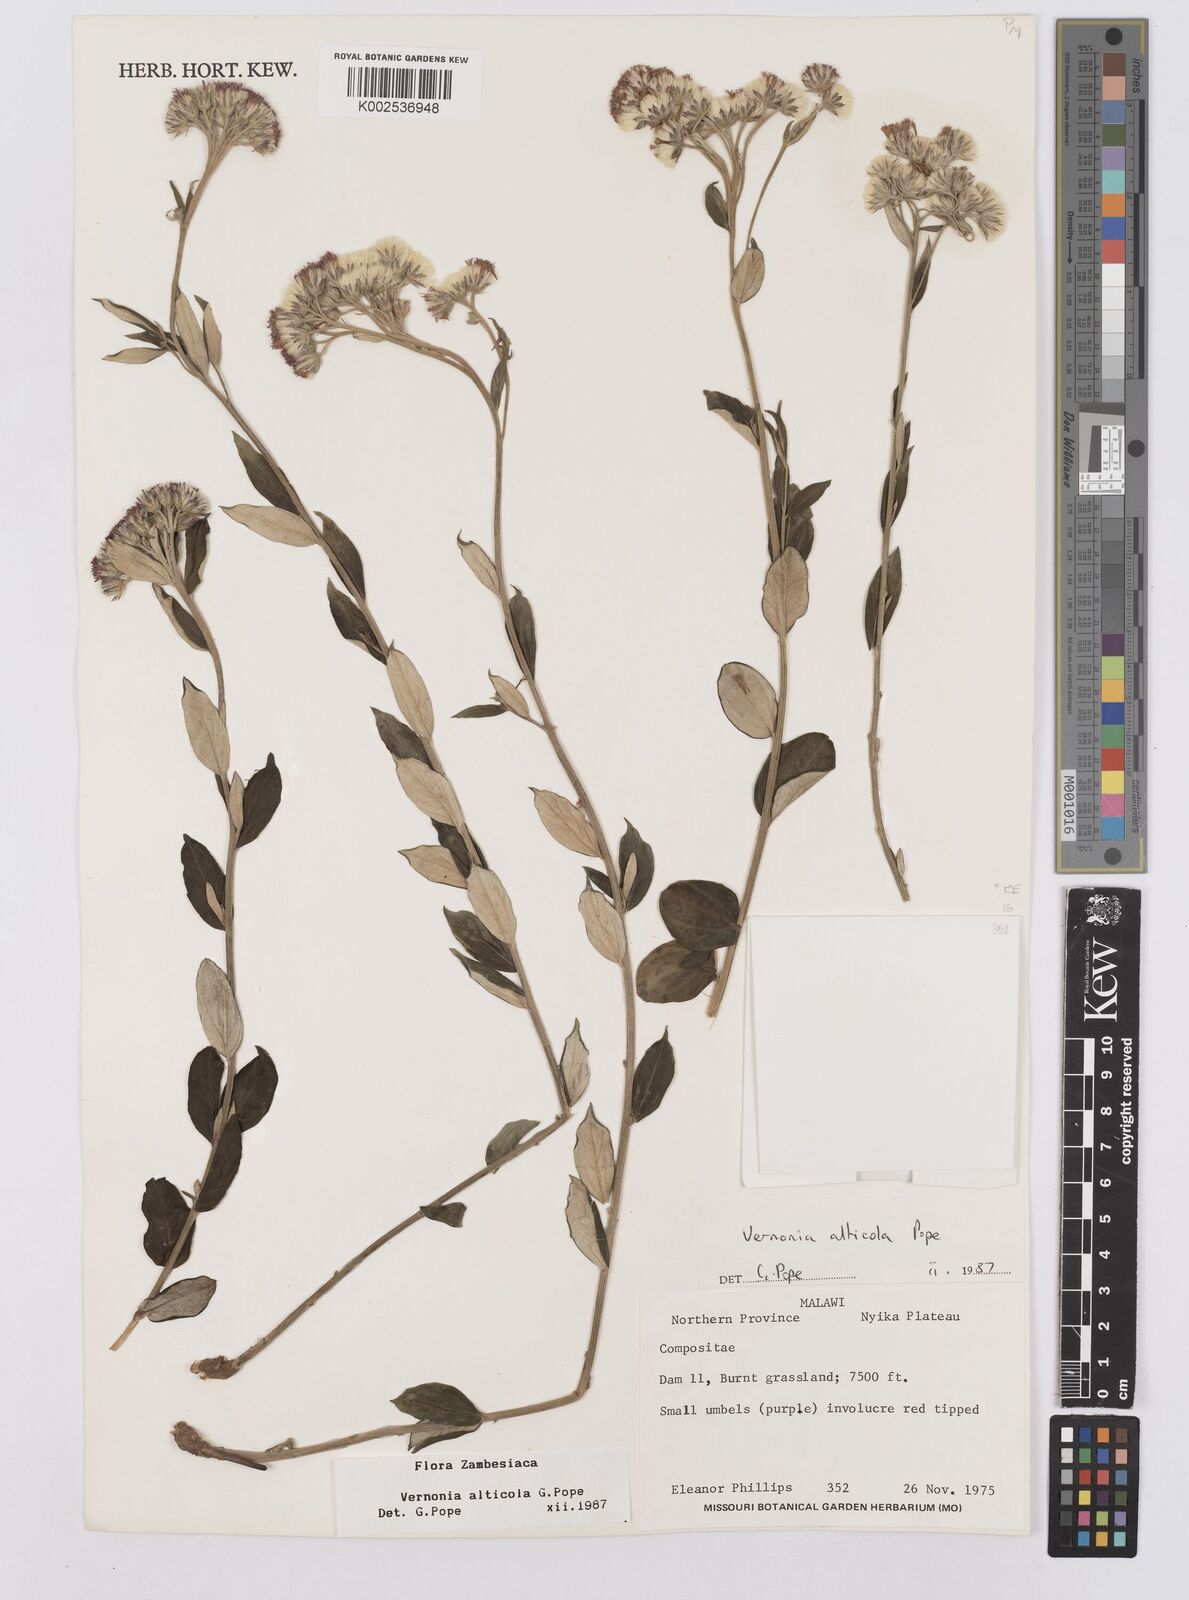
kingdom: Plantae
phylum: Tracheophyta
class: Magnoliopsida
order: Asterales
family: Asteraceae
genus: Vernonia
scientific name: Vernonia alticola
